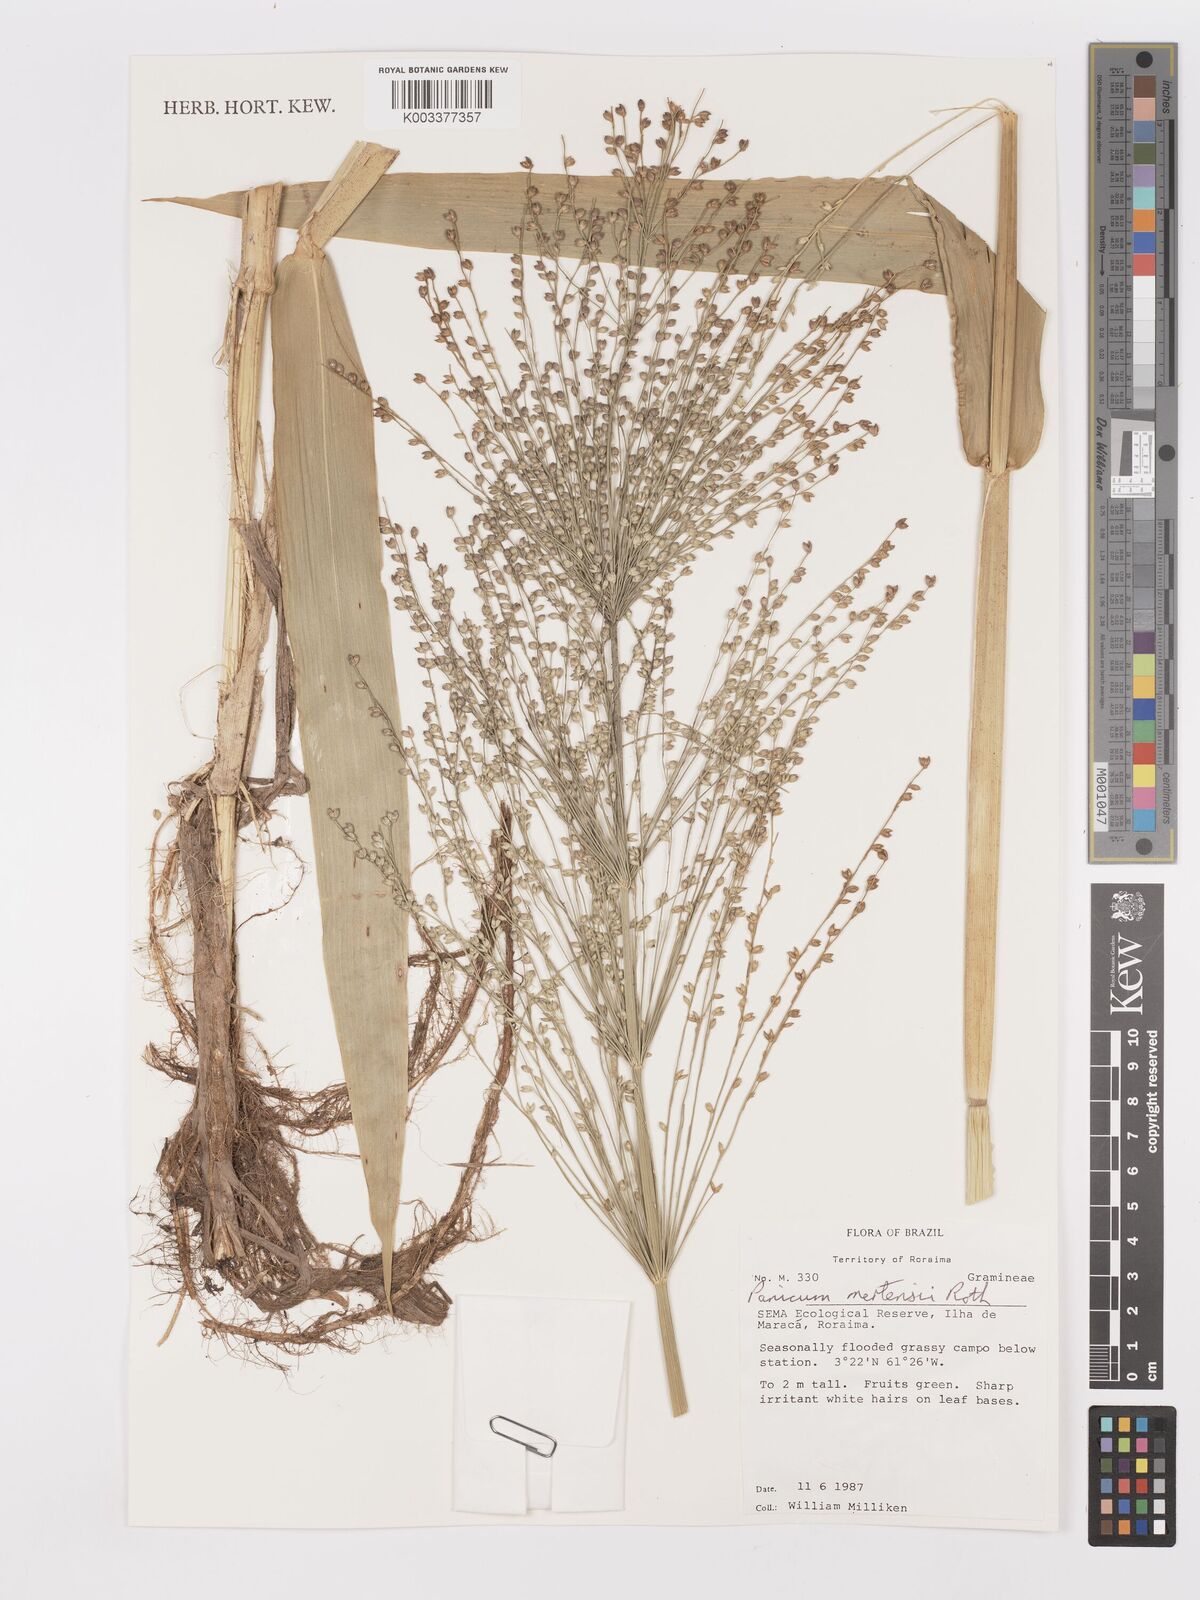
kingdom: Plantae
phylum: Tracheophyta
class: Liliopsida
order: Poales
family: Poaceae
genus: Stephostachys
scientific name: Stephostachys mertensii
